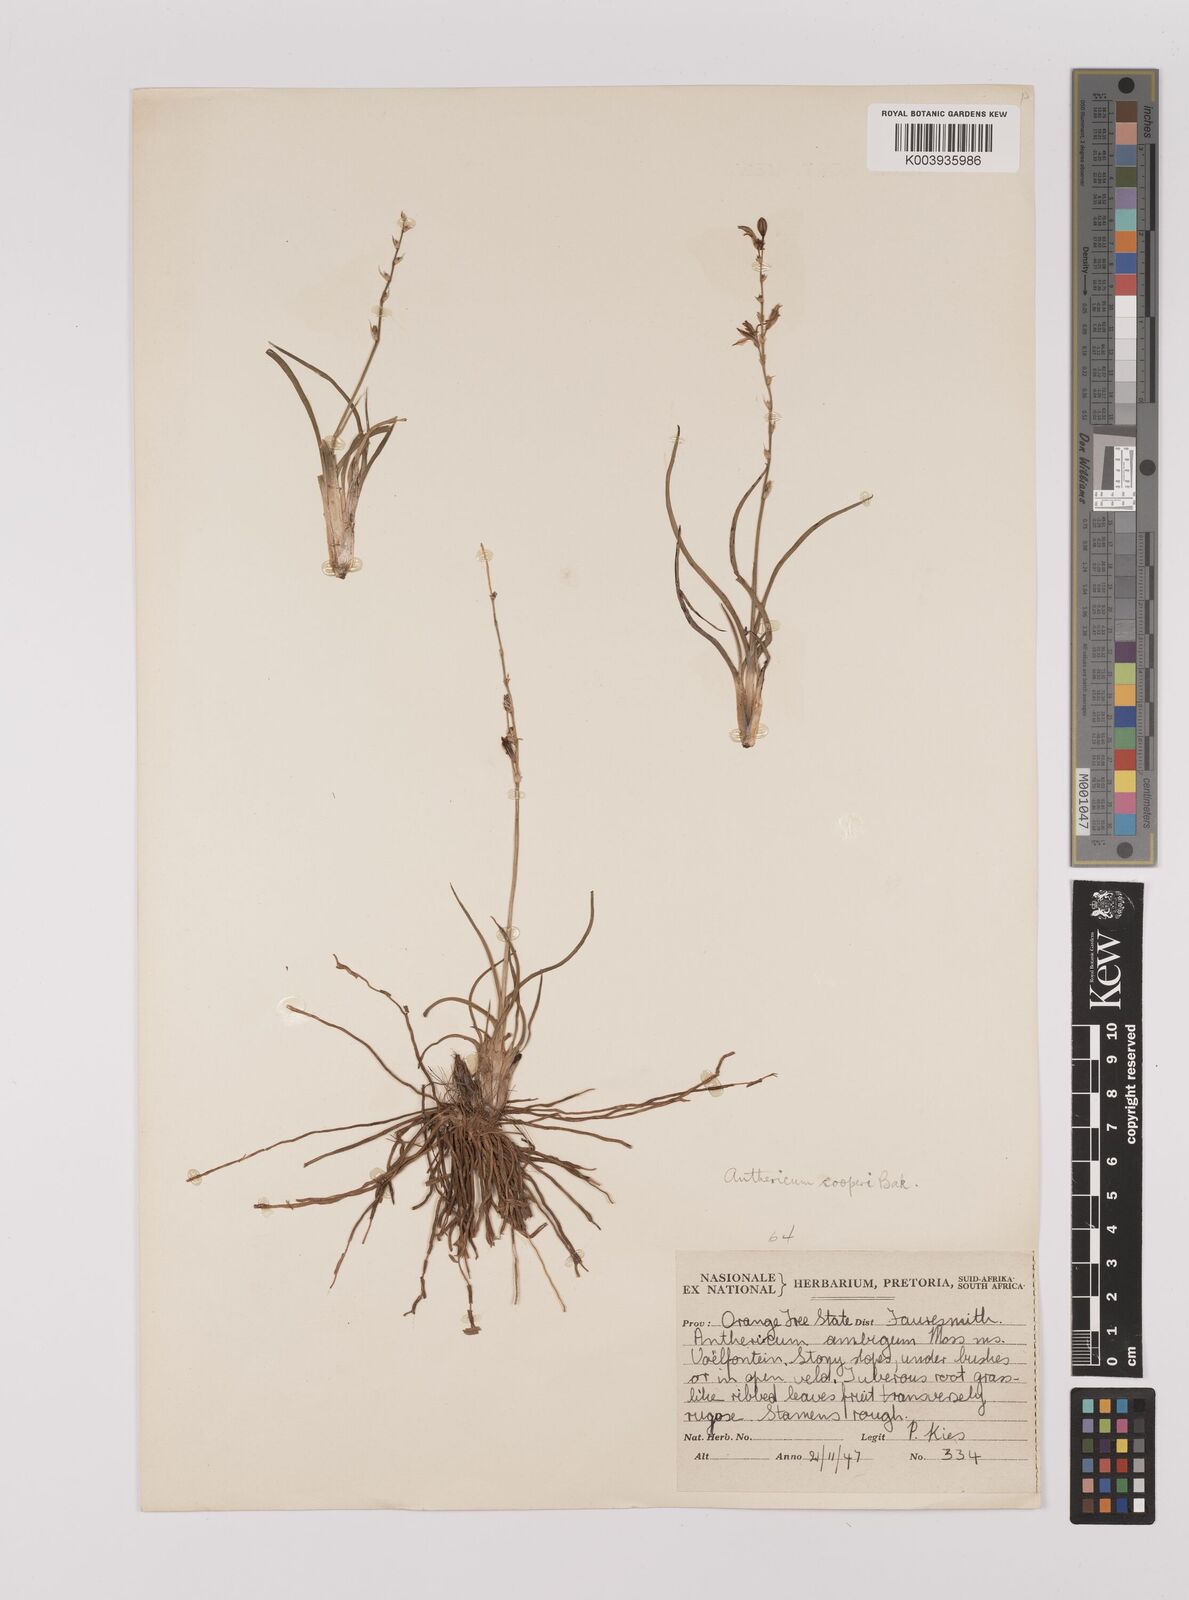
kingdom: Plantae
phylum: Tracheophyta
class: Liliopsida
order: Asparagales
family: Asparagaceae
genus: Chlorophytum
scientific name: Chlorophytum cooperi
